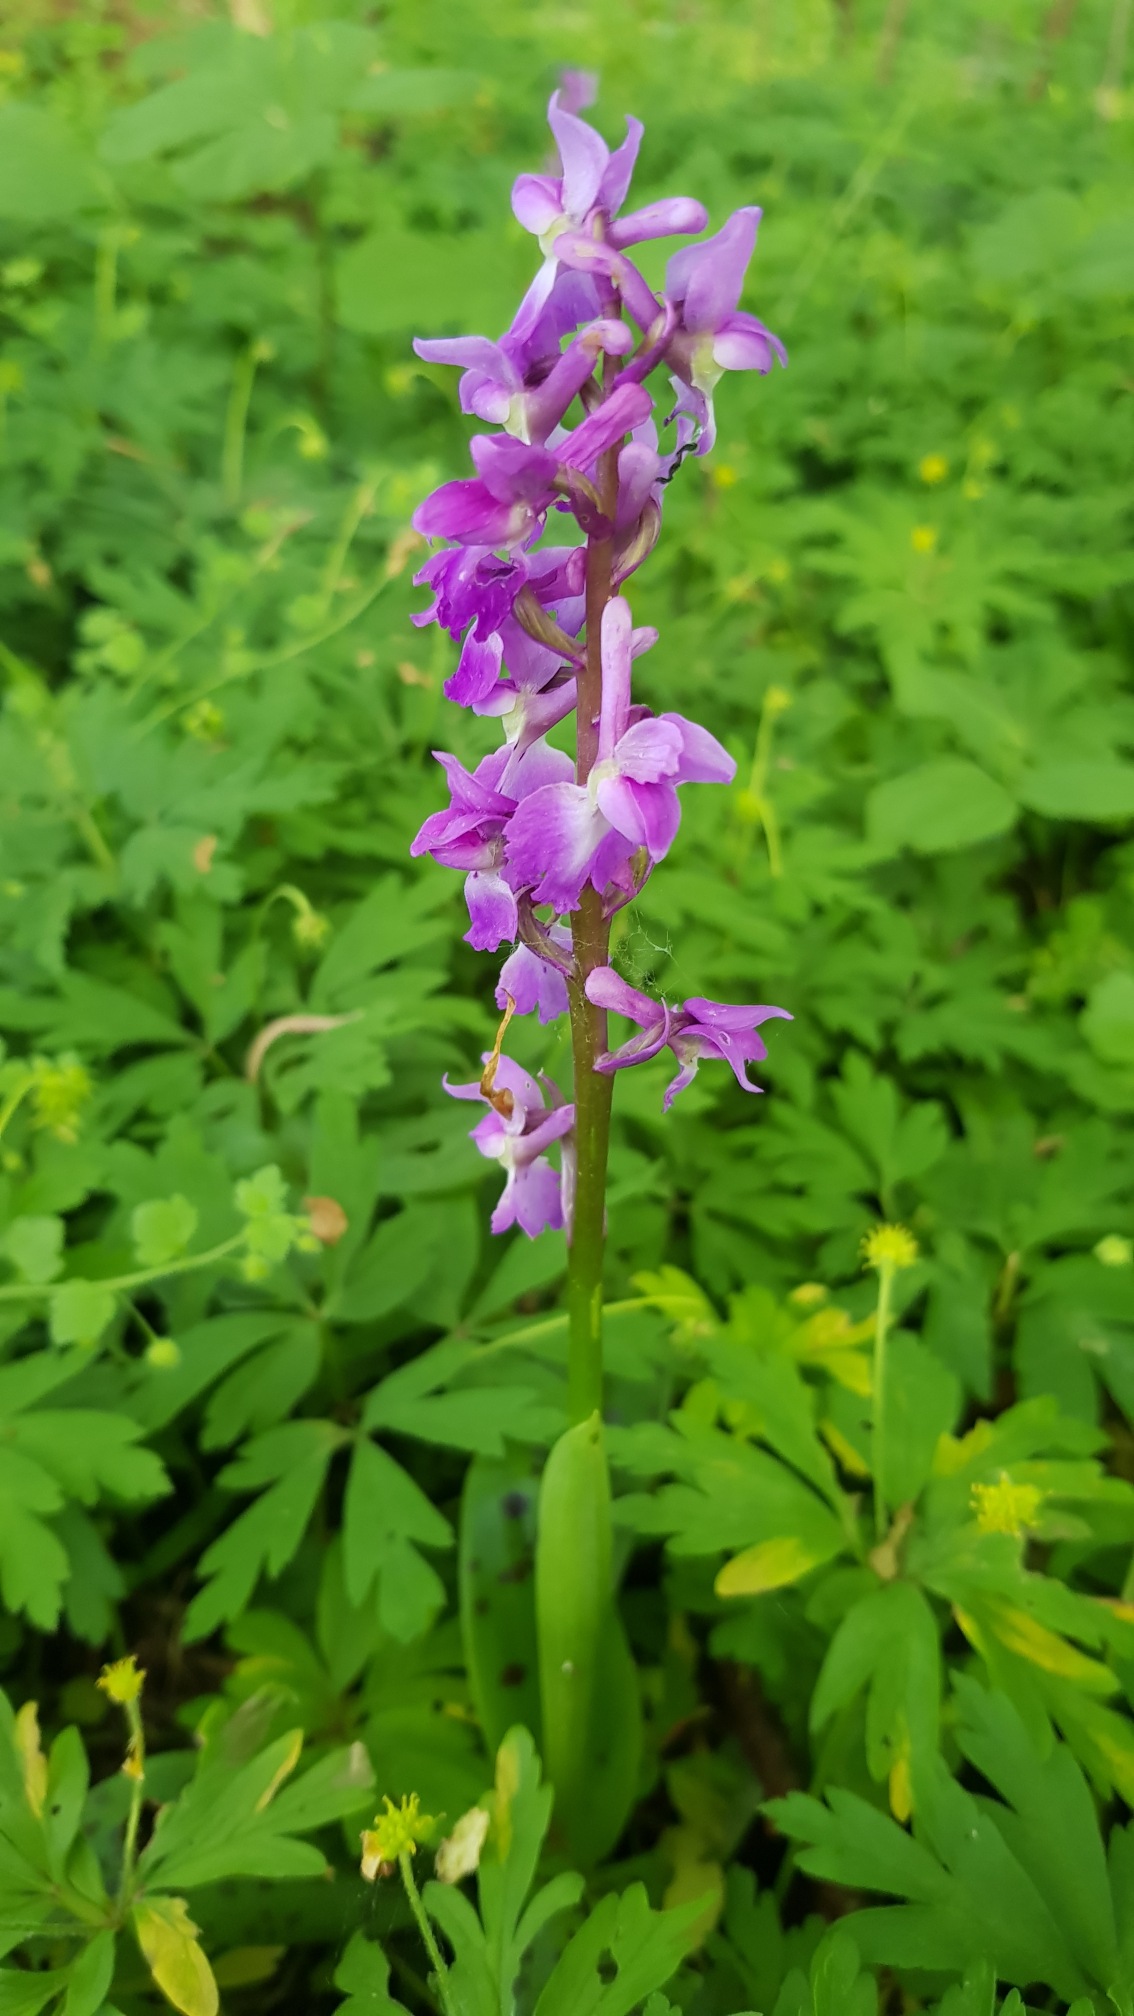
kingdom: Plantae
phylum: Tracheophyta
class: Liliopsida
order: Asparagales
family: Orchidaceae
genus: Orchis
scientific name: Orchis mascula
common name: Tyndakset gøgeurt
